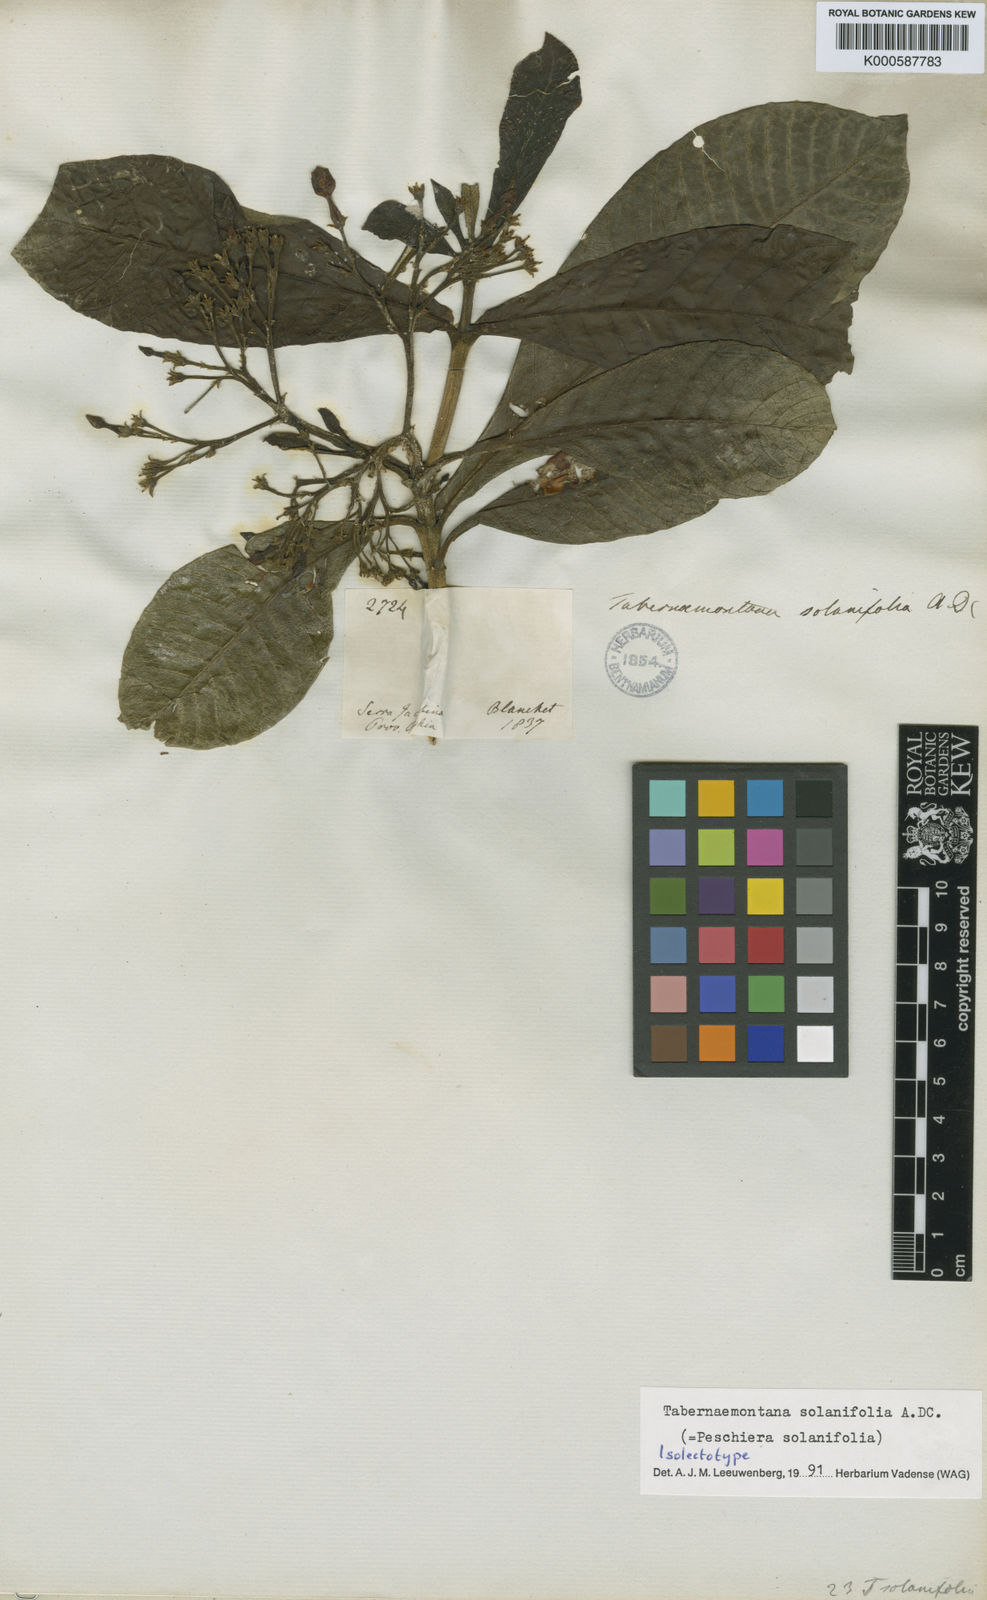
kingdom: Plantae
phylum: Tracheophyta
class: Magnoliopsida
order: Gentianales
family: Apocynaceae
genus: Tabernaemontana
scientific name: Tabernaemontana solanifolia
